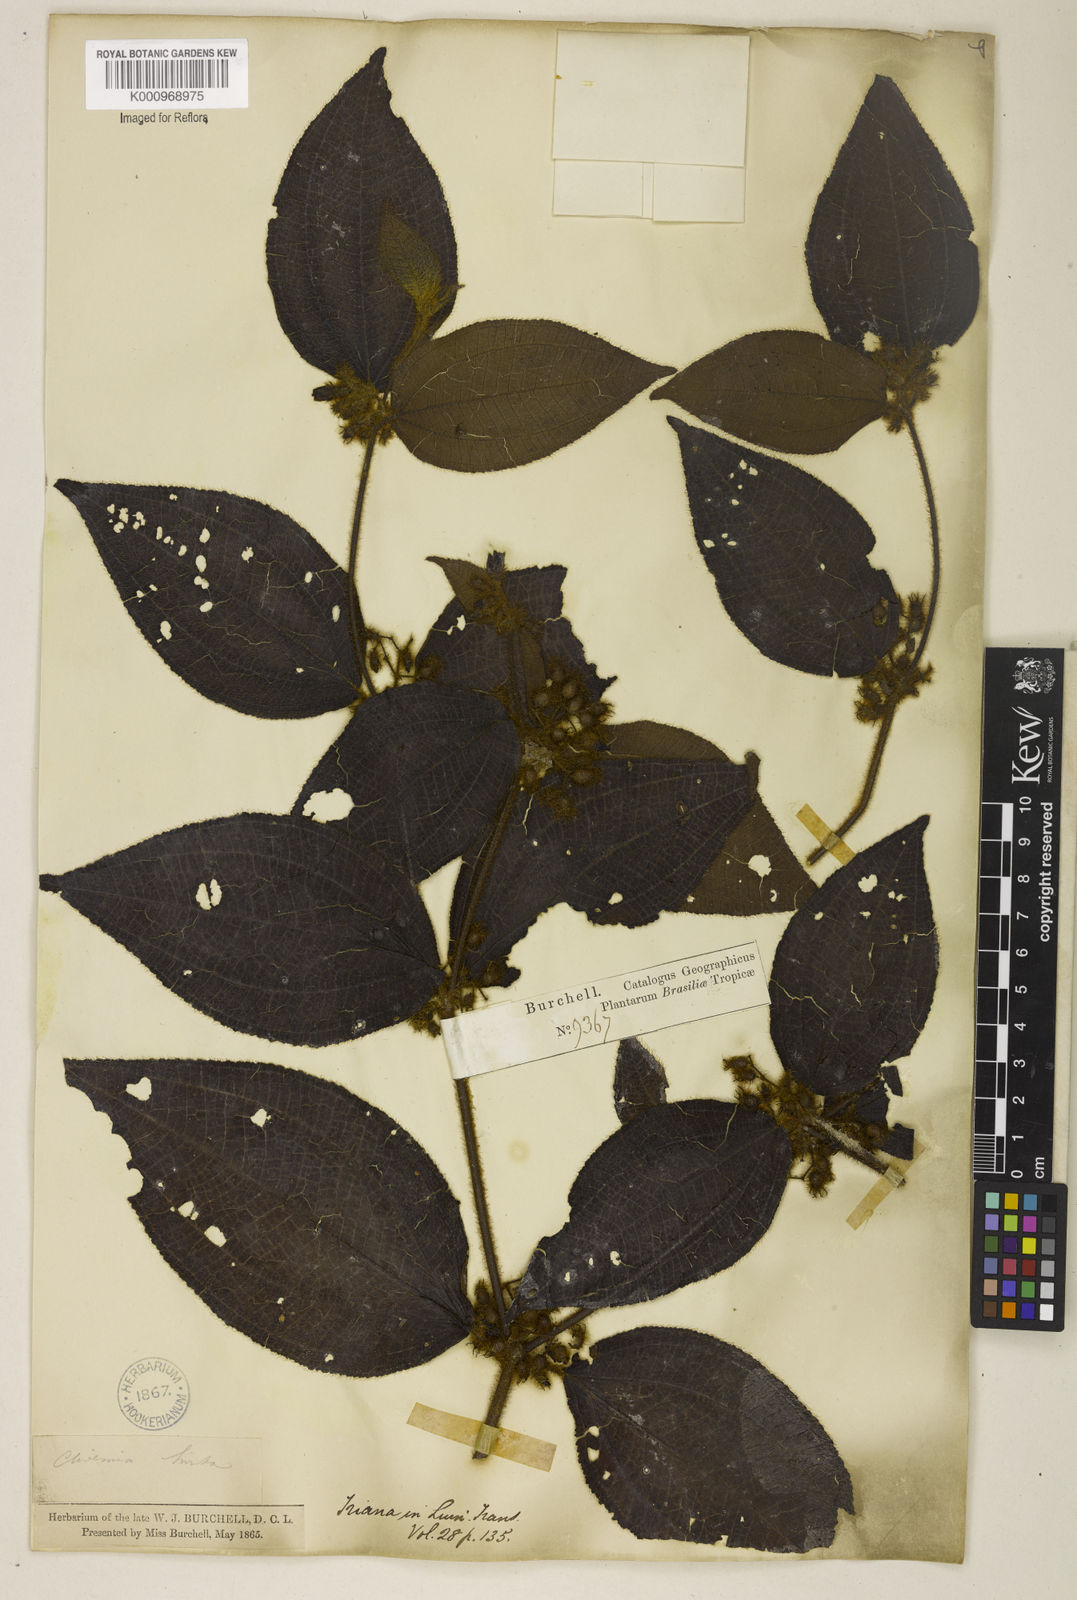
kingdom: Plantae
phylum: Tracheophyta
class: Magnoliopsida
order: Myrtales
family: Melastomataceae
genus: Miconia
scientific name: Miconia crenata
